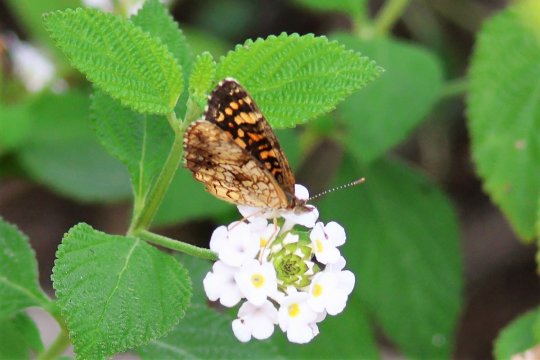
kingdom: Animalia
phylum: Arthropoda
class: Insecta
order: Lepidoptera
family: Nymphalidae
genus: Phyciodes
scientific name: Phyciodes vesta
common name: Vesta Crescent
